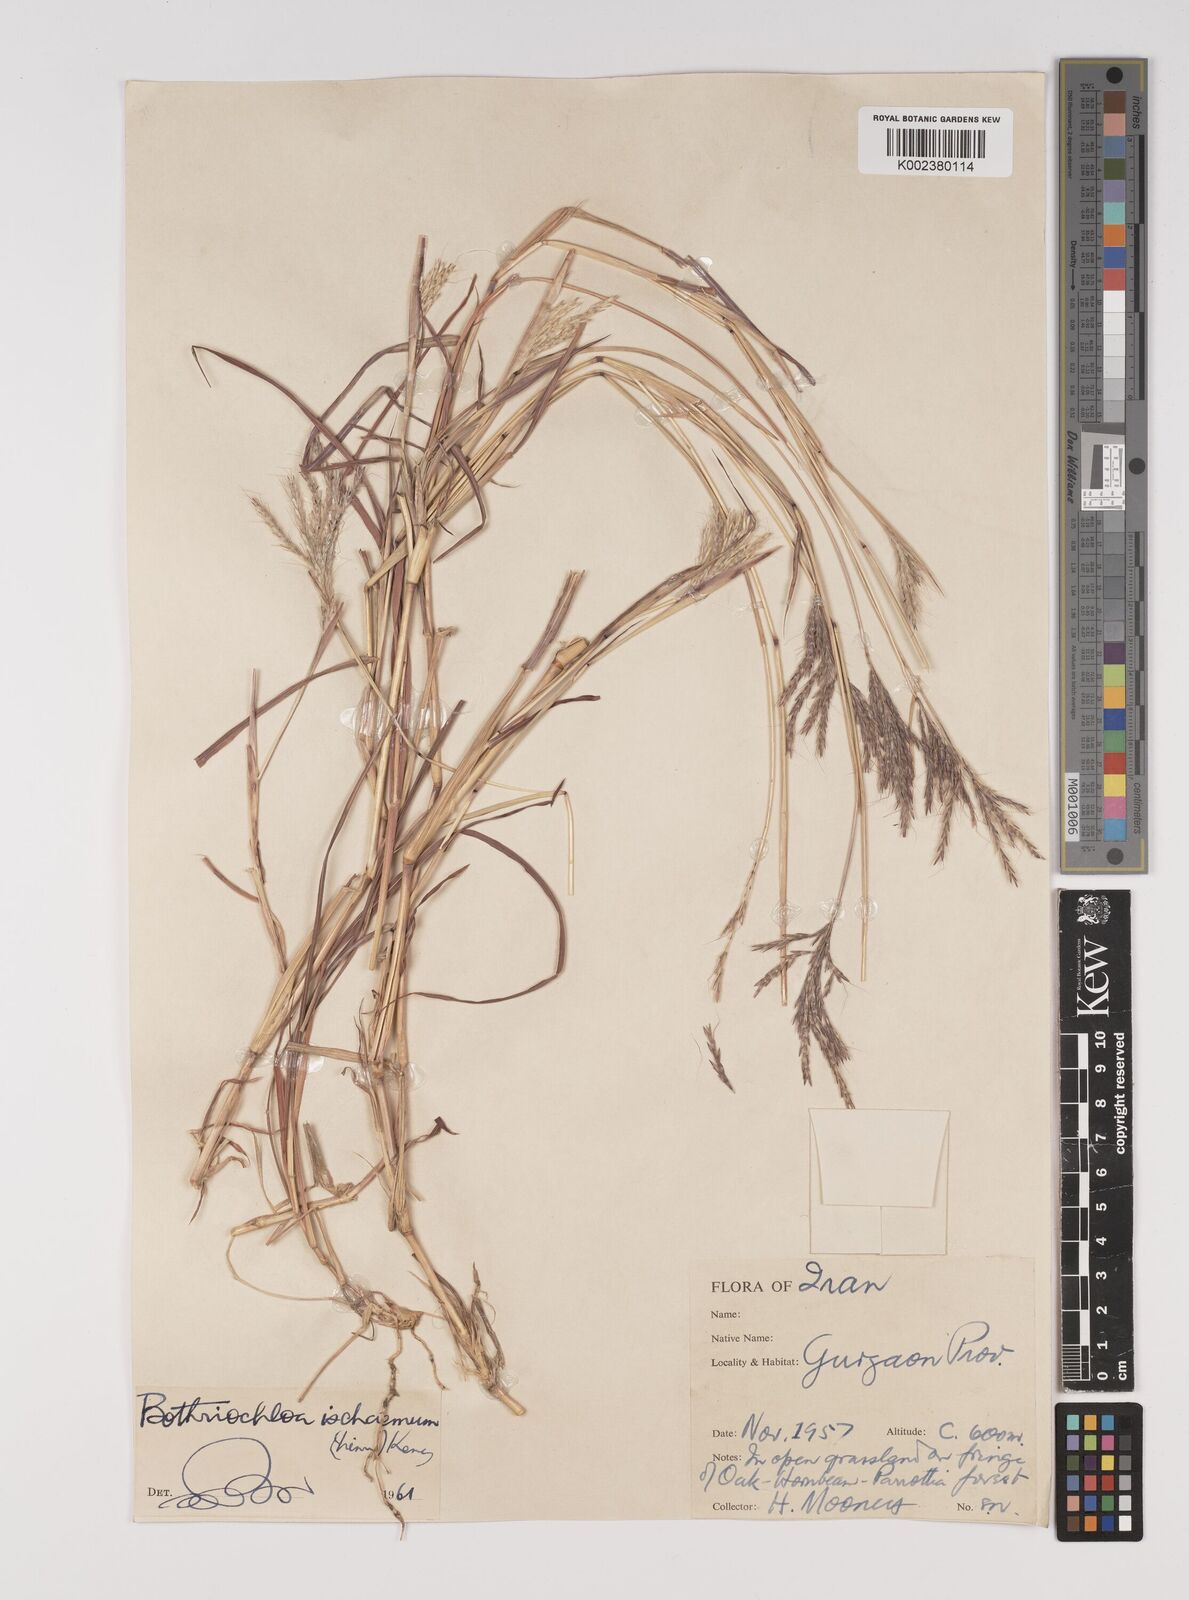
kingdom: Plantae
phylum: Tracheophyta
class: Liliopsida
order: Poales
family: Poaceae
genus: Bothriochloa
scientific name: Bothriochloa ischaemum
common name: Yellow bluestem
